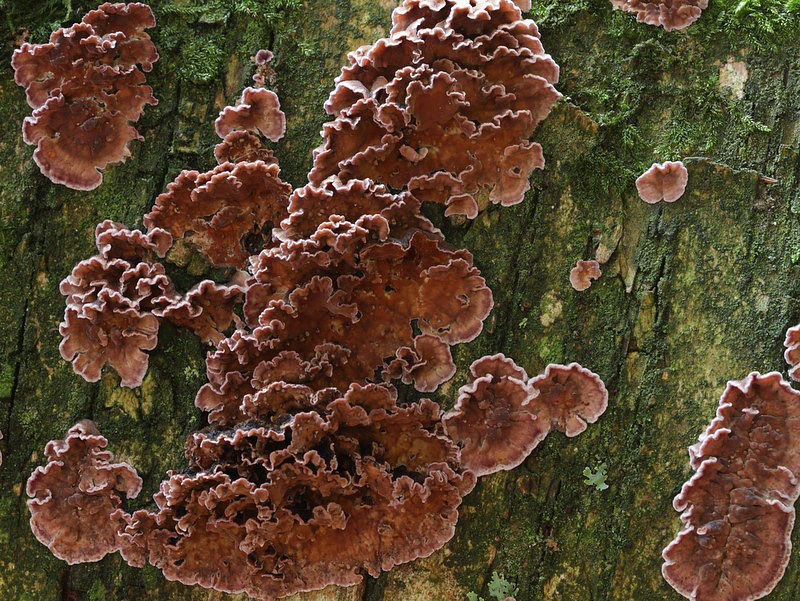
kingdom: Fungi
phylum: Basidiomycota
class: Agaricomycetes
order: Agaricales
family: Cyphellaceae
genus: Chondrostereum
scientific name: Chondrostereum purpureum
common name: purpurlædersvamp
